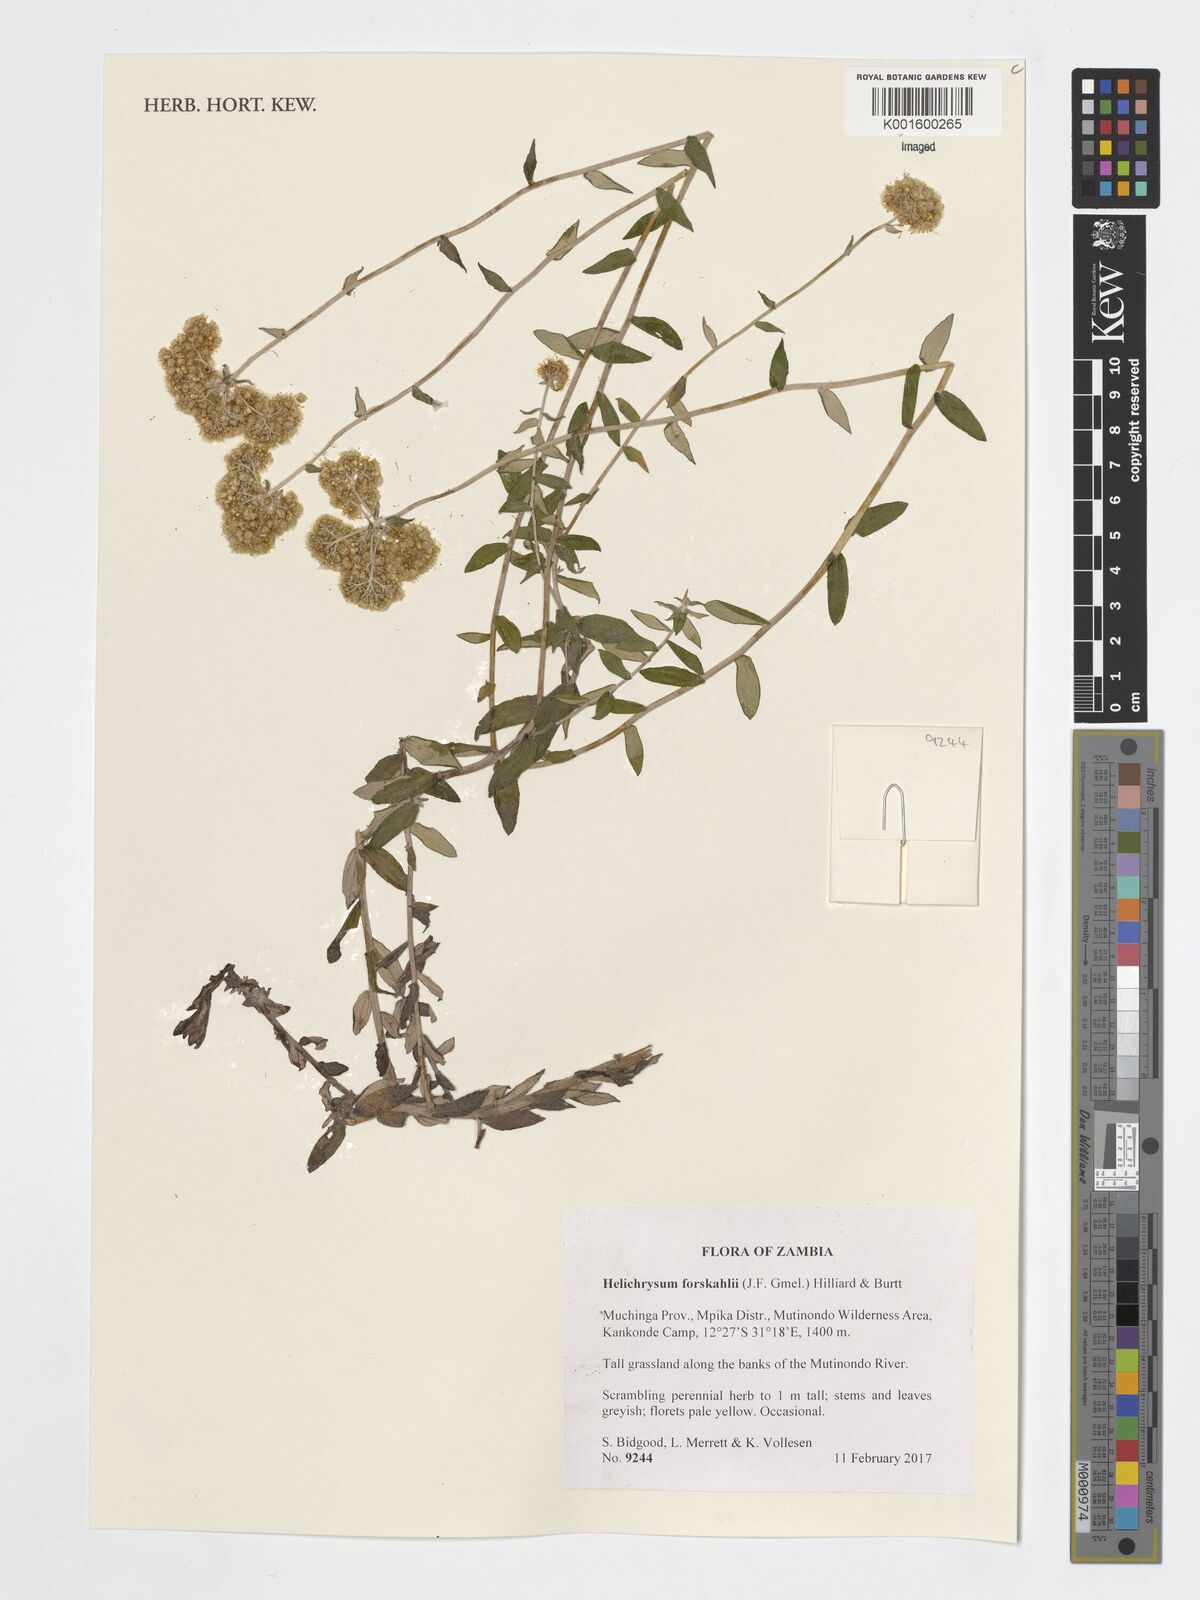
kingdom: Plantae
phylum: Tracheophyta
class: Magnoliopsida
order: Asterales
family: Asteraceae
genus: Helichrysum
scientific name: Helichrysum forskahlii
